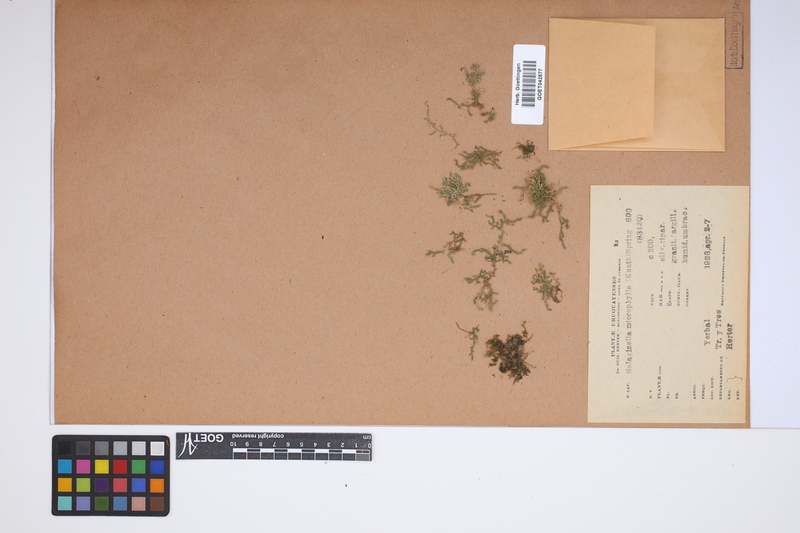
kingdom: Plantae
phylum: Tracheophyta
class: Lycopodiopsida
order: Selaginellales
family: Selaginellaceae
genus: Selaginella
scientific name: Selaginella microphylla
